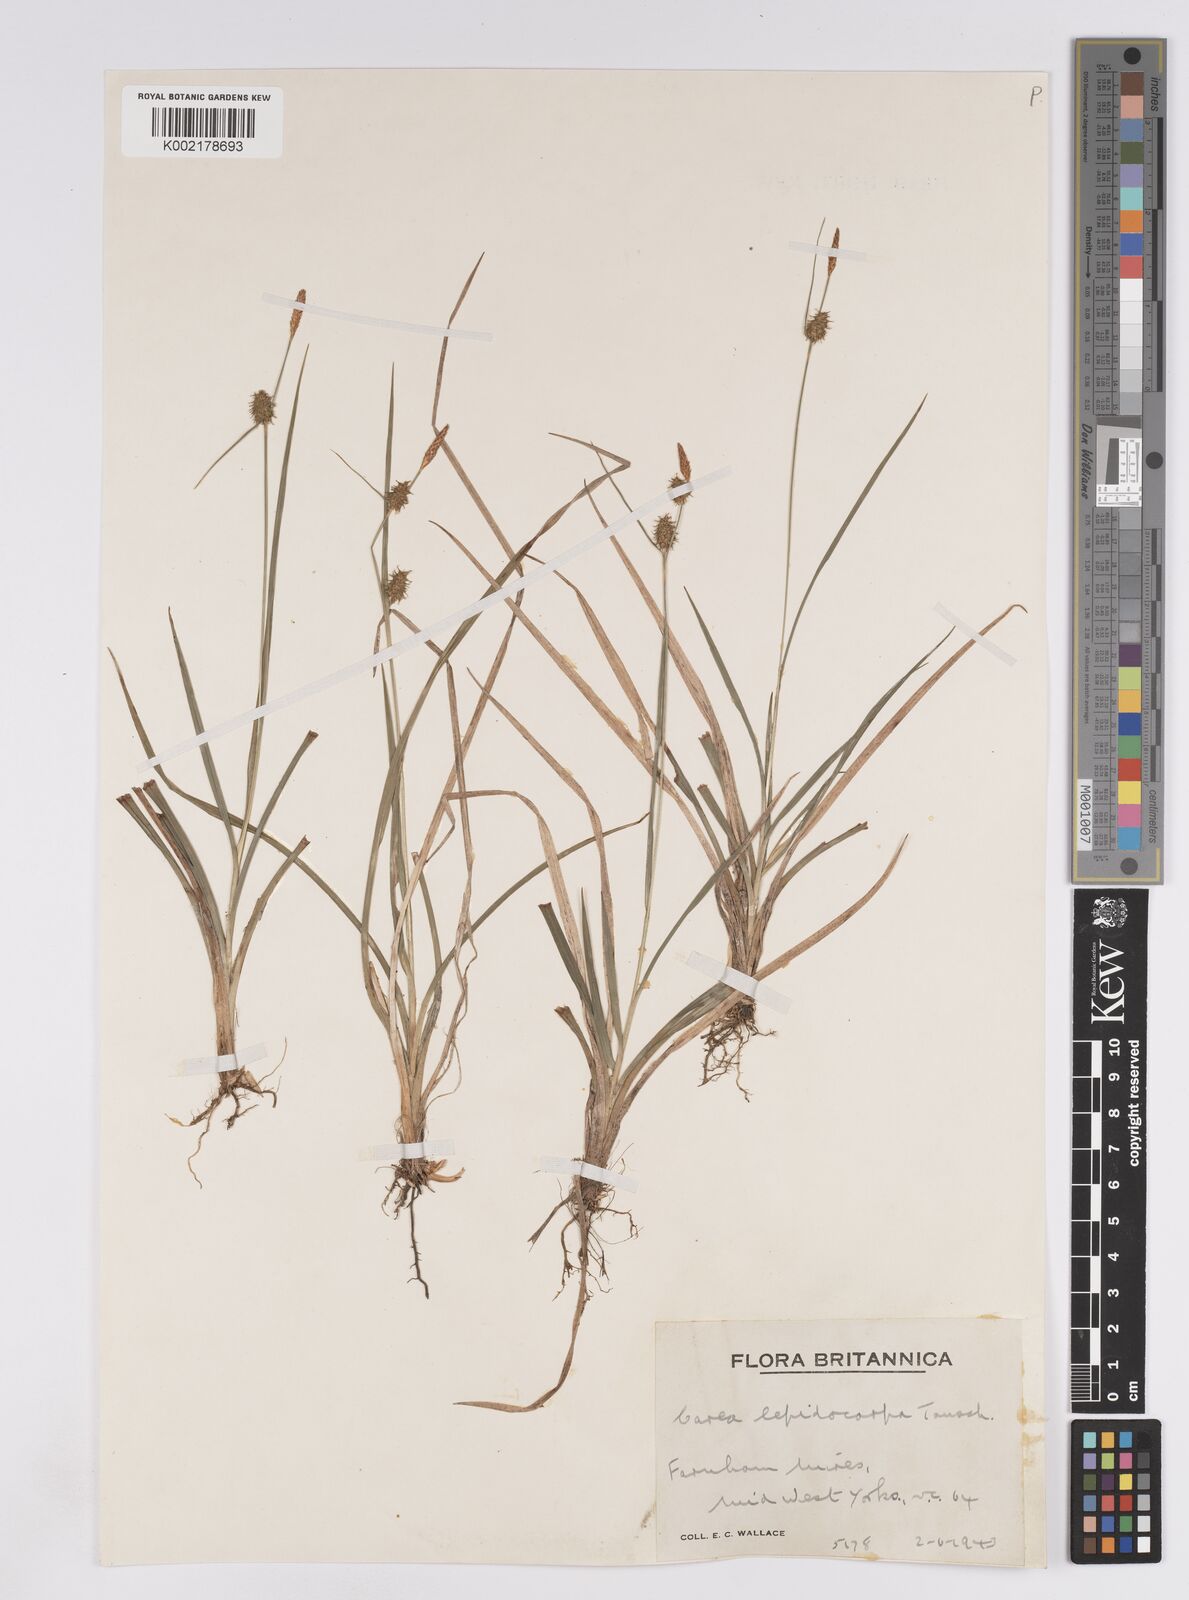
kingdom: Plantae
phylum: Tracheophyta
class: Liliopsida
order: Poales
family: Cyperaceae
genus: Carex
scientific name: Carex lepidocarpa
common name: Long-stalked yellow-sedge
